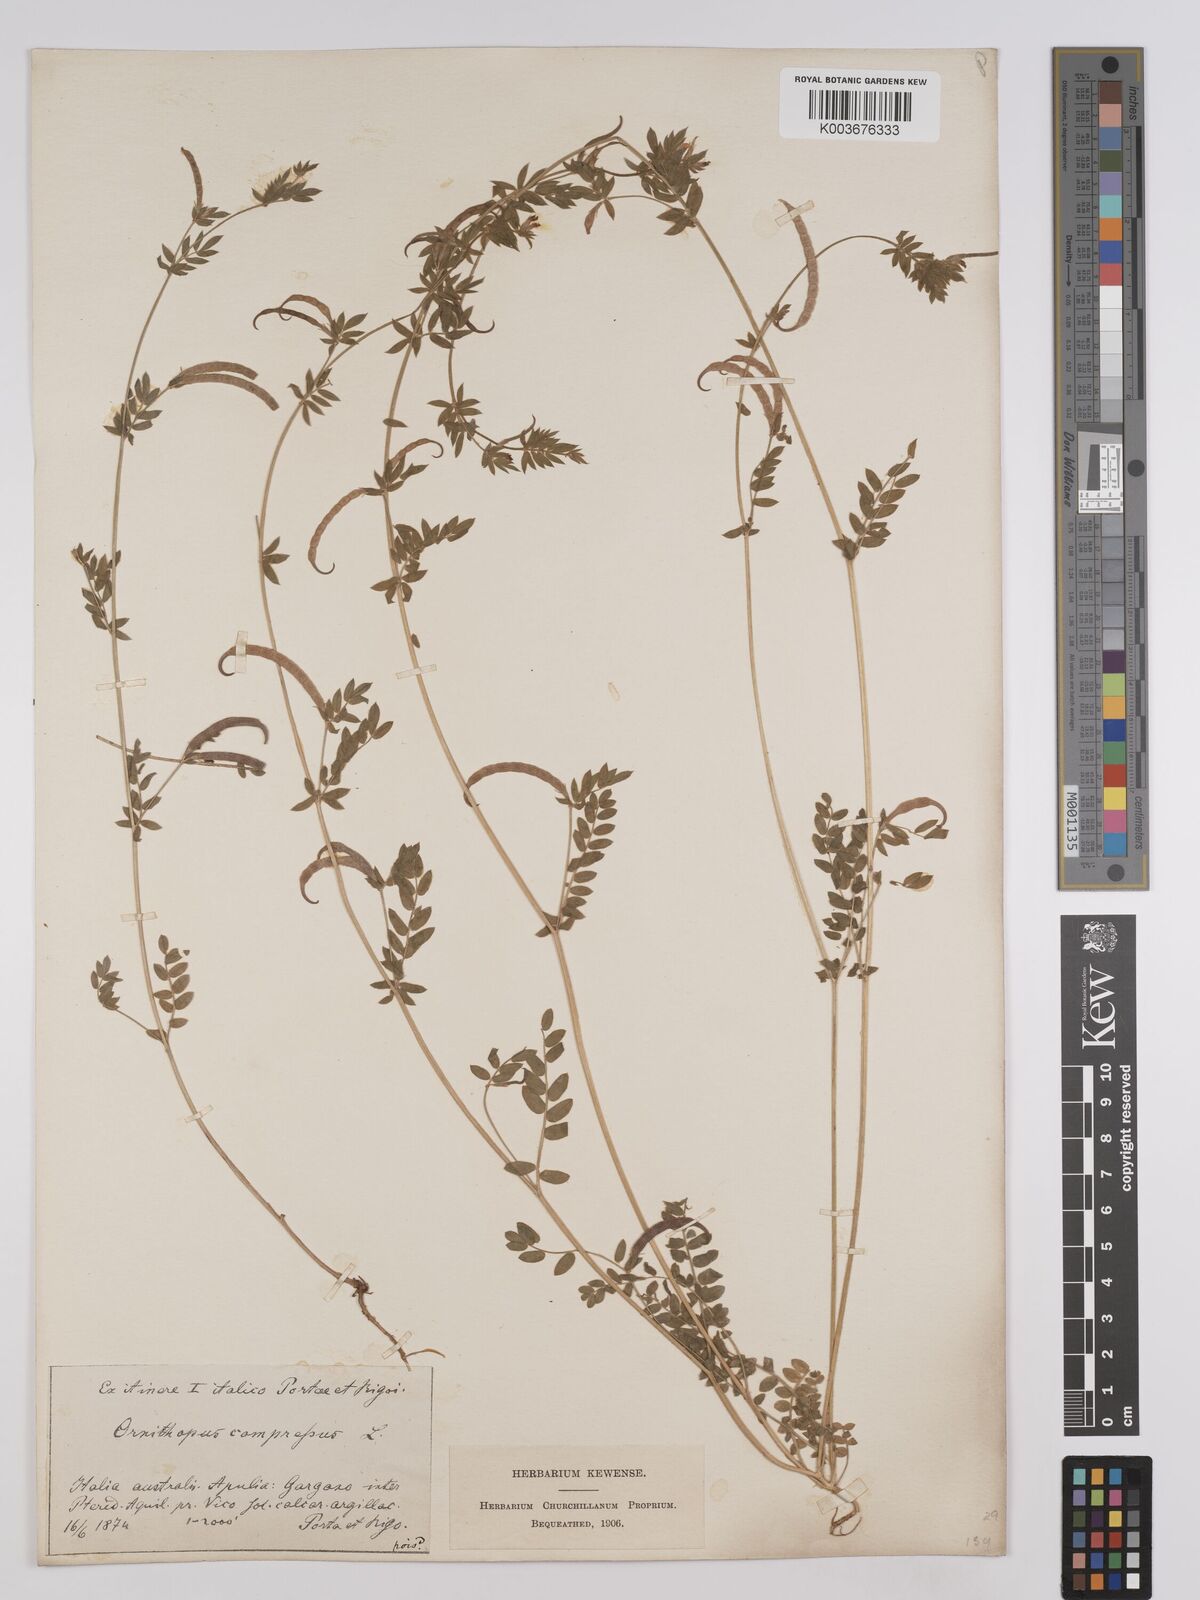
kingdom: Plantae
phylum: Tracheophyta
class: Magnoliopsida
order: Fabales
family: Fabaceae
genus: Ornithopus
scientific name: Ornithopus compressus
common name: Yellow serradella
